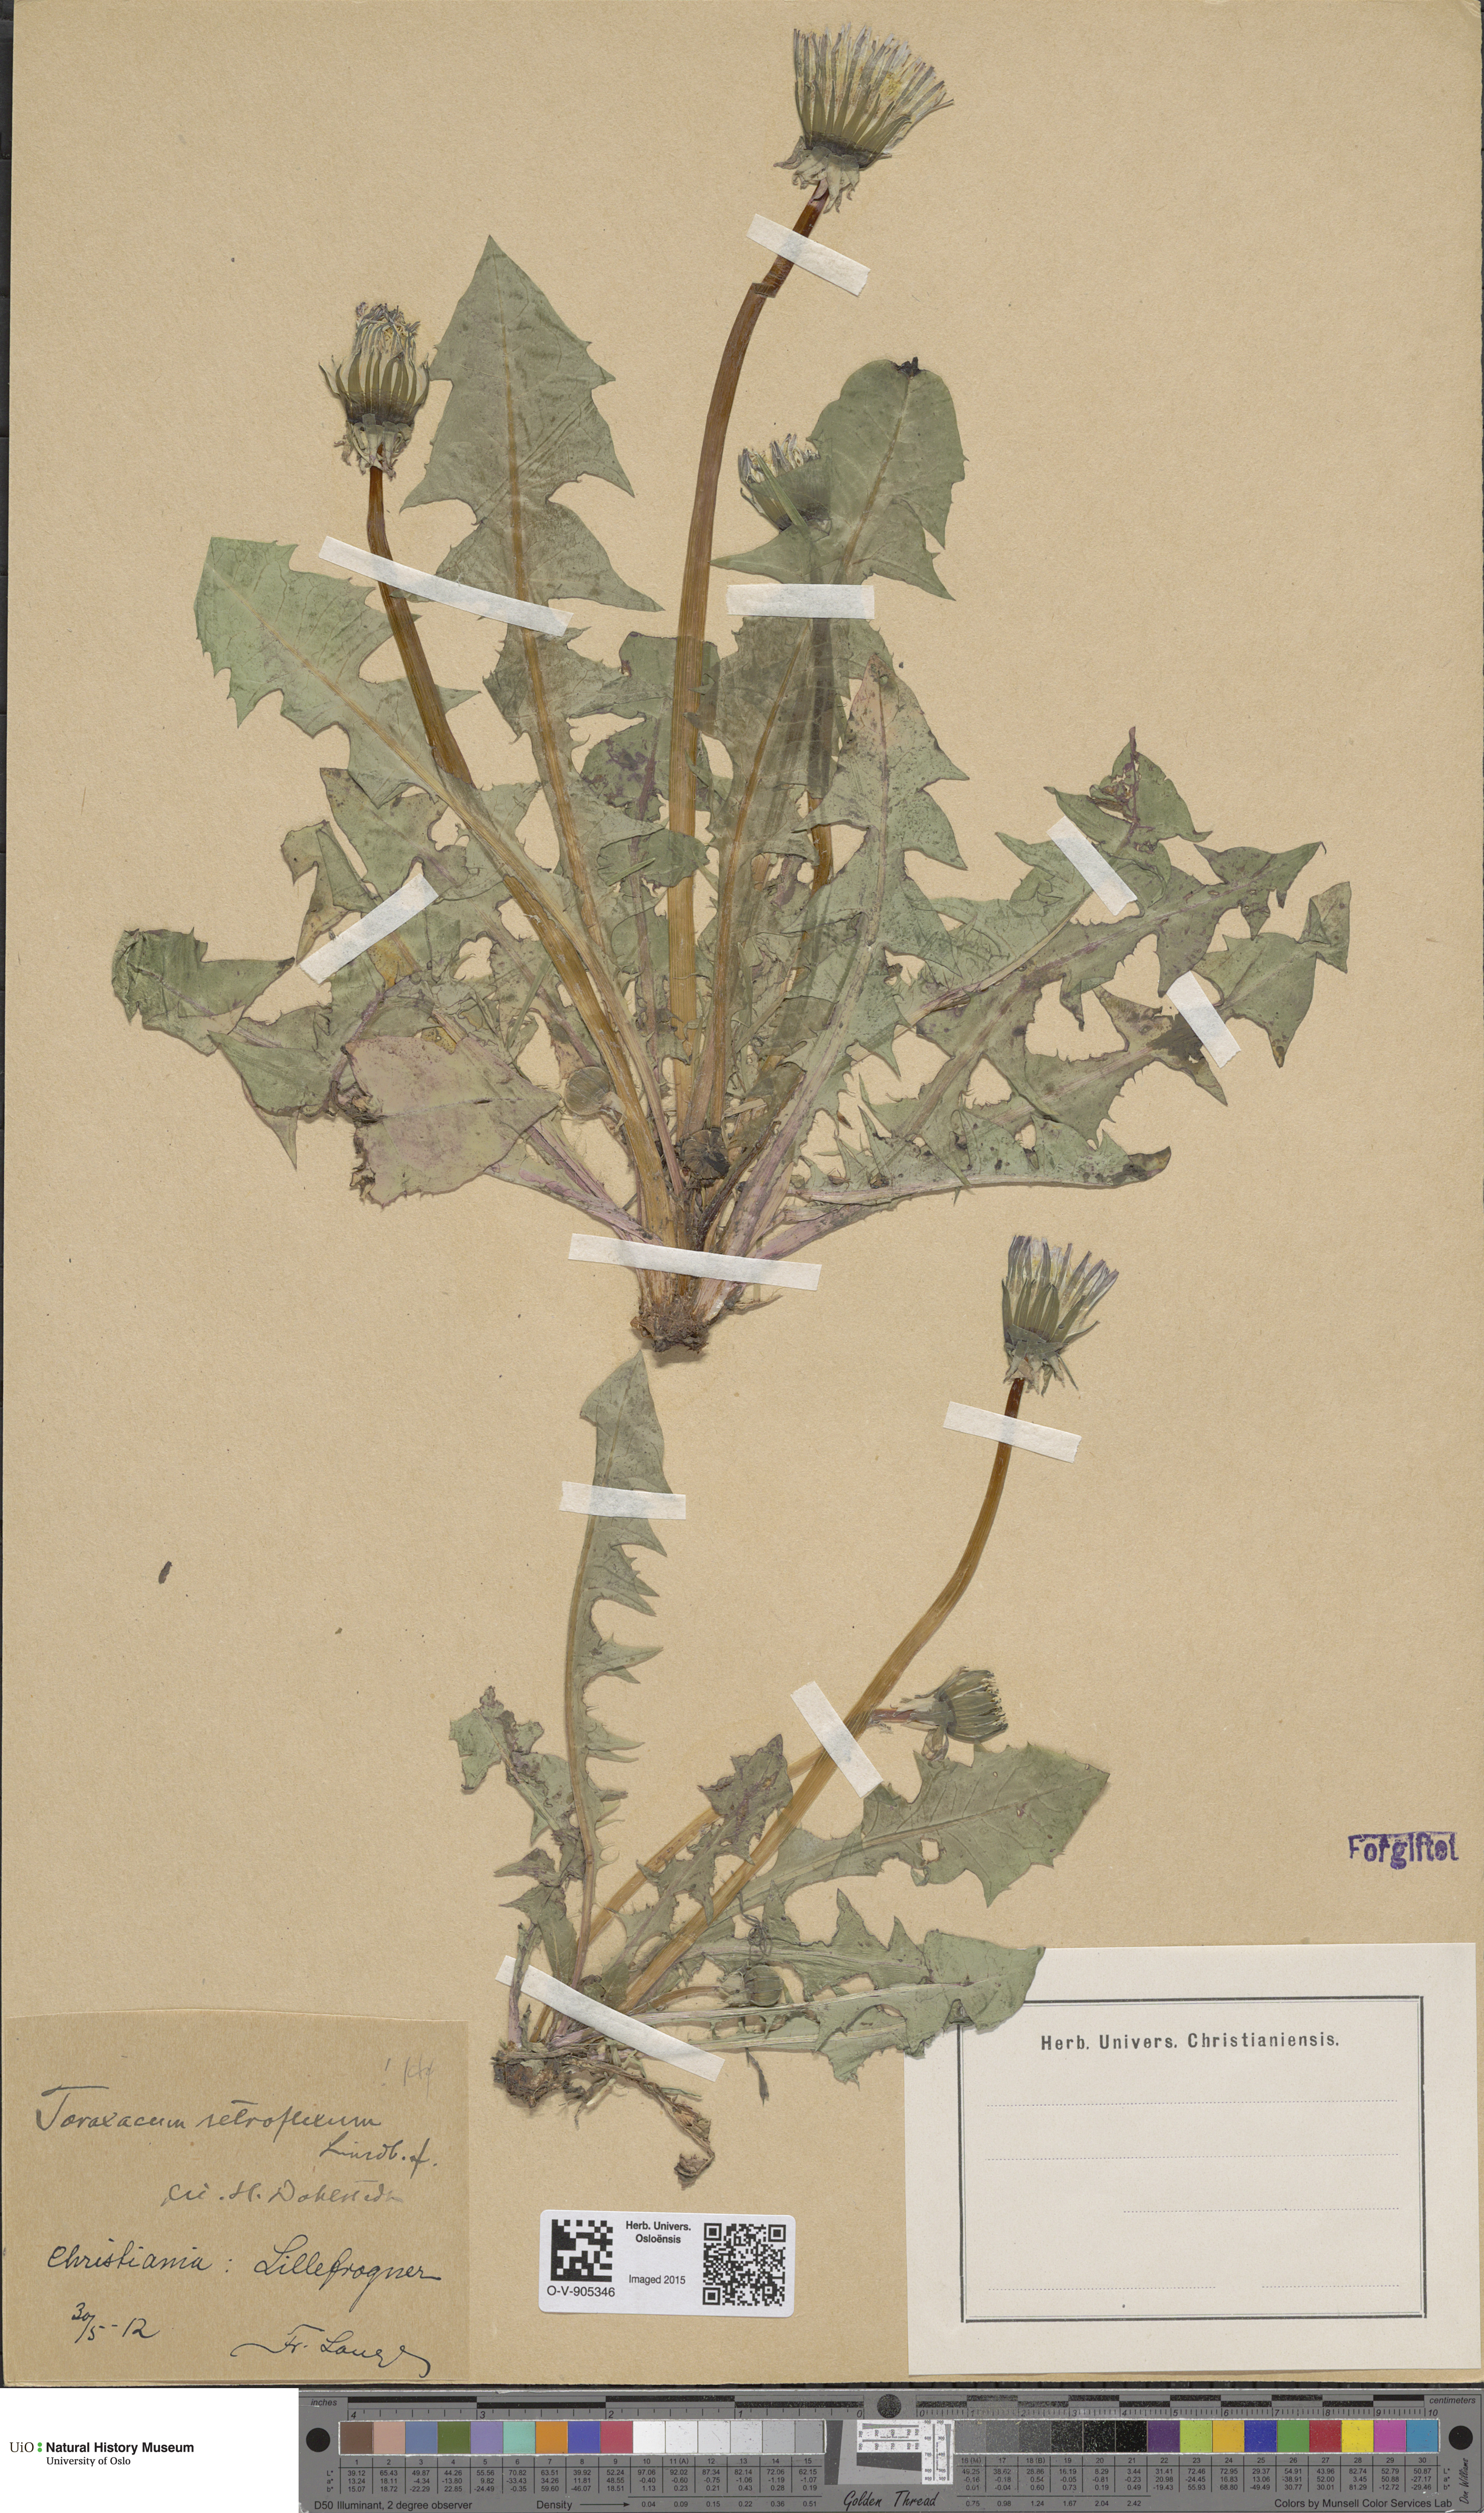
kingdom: Plantae
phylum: Tracheophyta
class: Magnoliopsida
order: Asterales
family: Asteraceae
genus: Taraxacum
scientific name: Taraxacum retroflexum
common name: Reflexed-lobed dandelion
